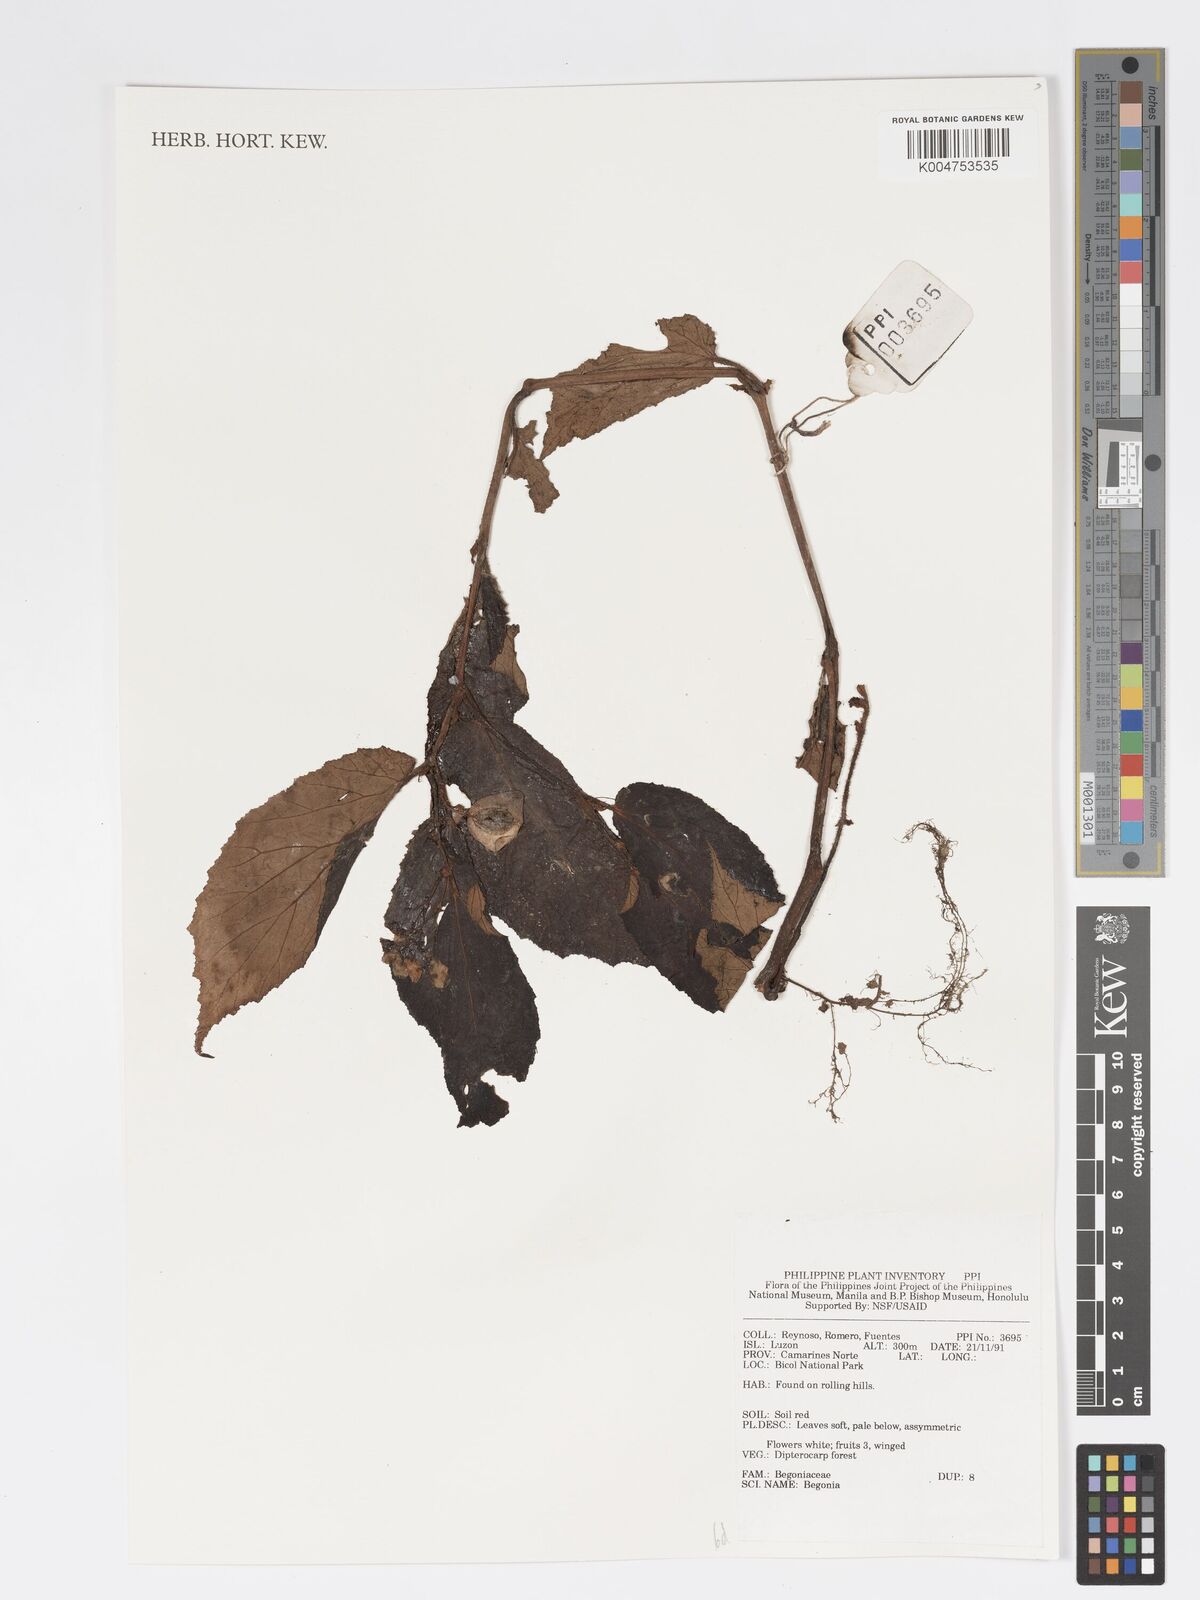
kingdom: Plantae
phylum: Tracheophyta
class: Magnoliopsida
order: Cucurbitales
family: Begoniaceae
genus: Begonia
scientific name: Begonia
